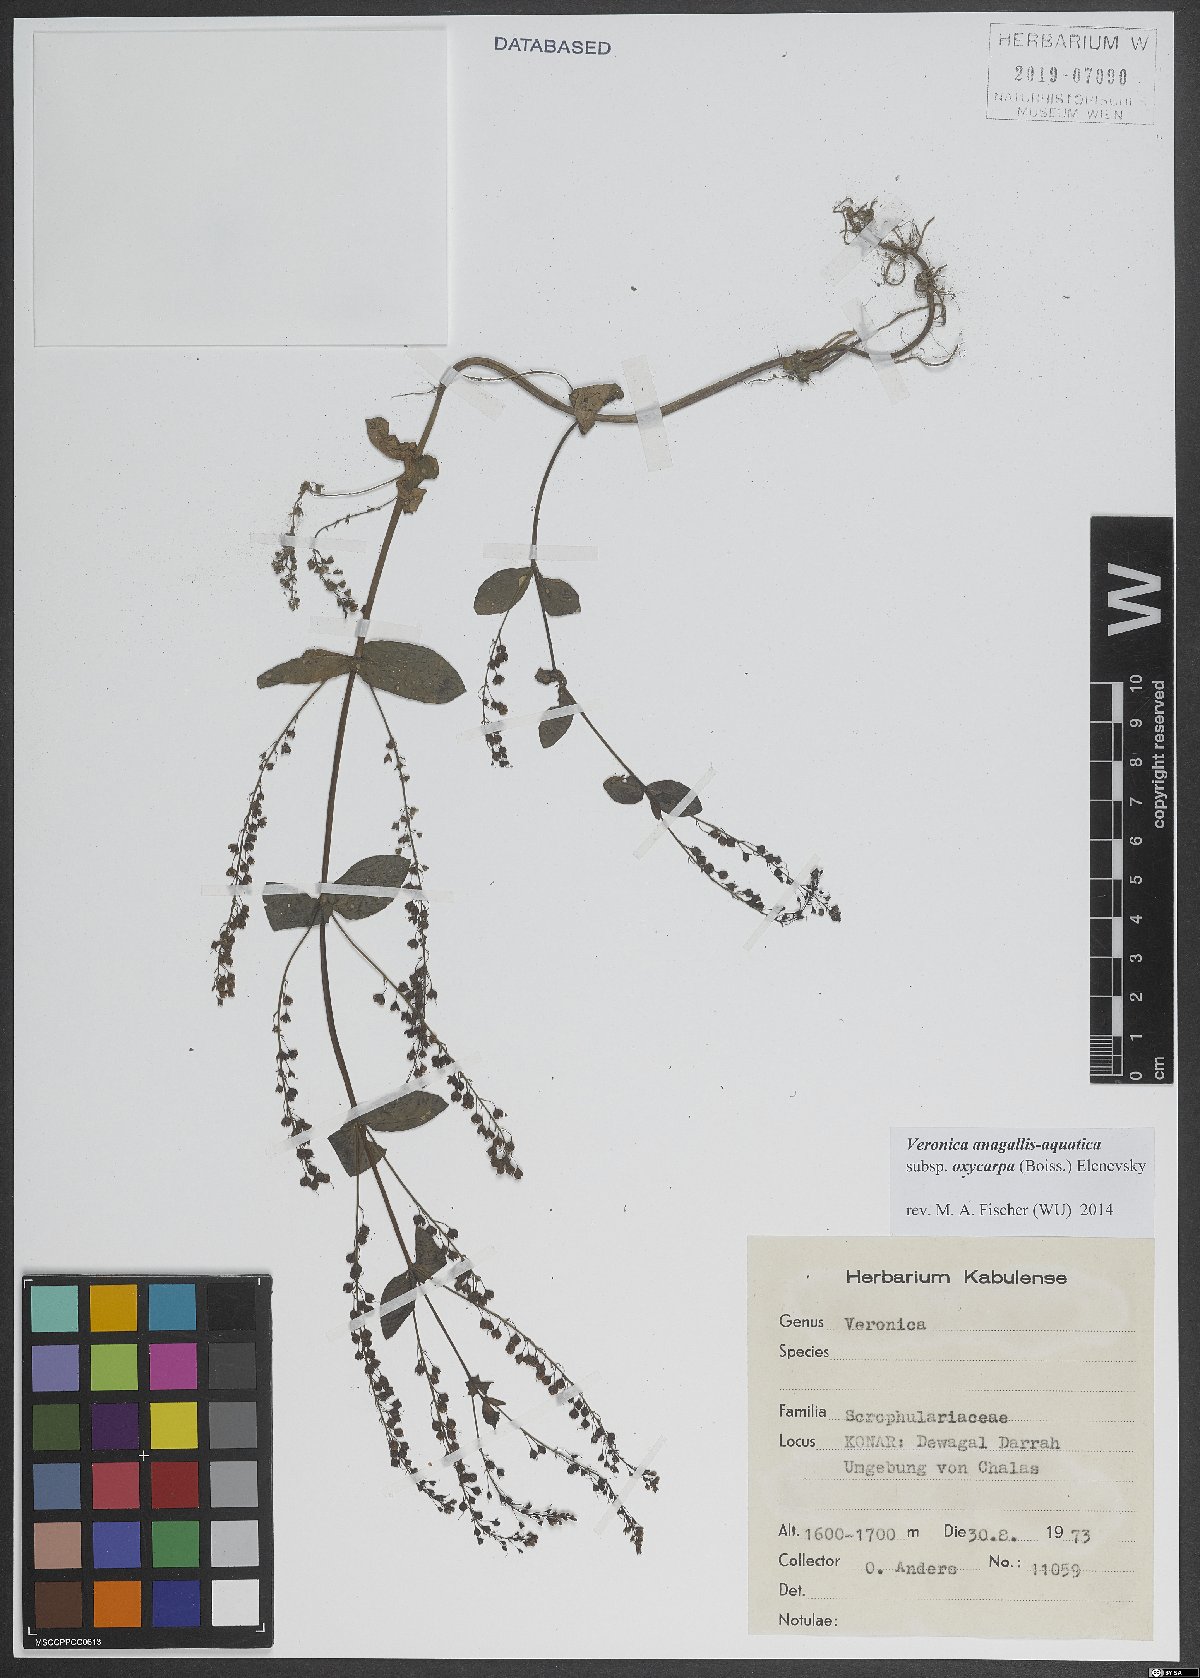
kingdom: Plantae
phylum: Tracheophyta
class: Magnoliopsida
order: Lamiales
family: Plantaginaceae
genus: Veronica
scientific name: Veronica oxycarpa
